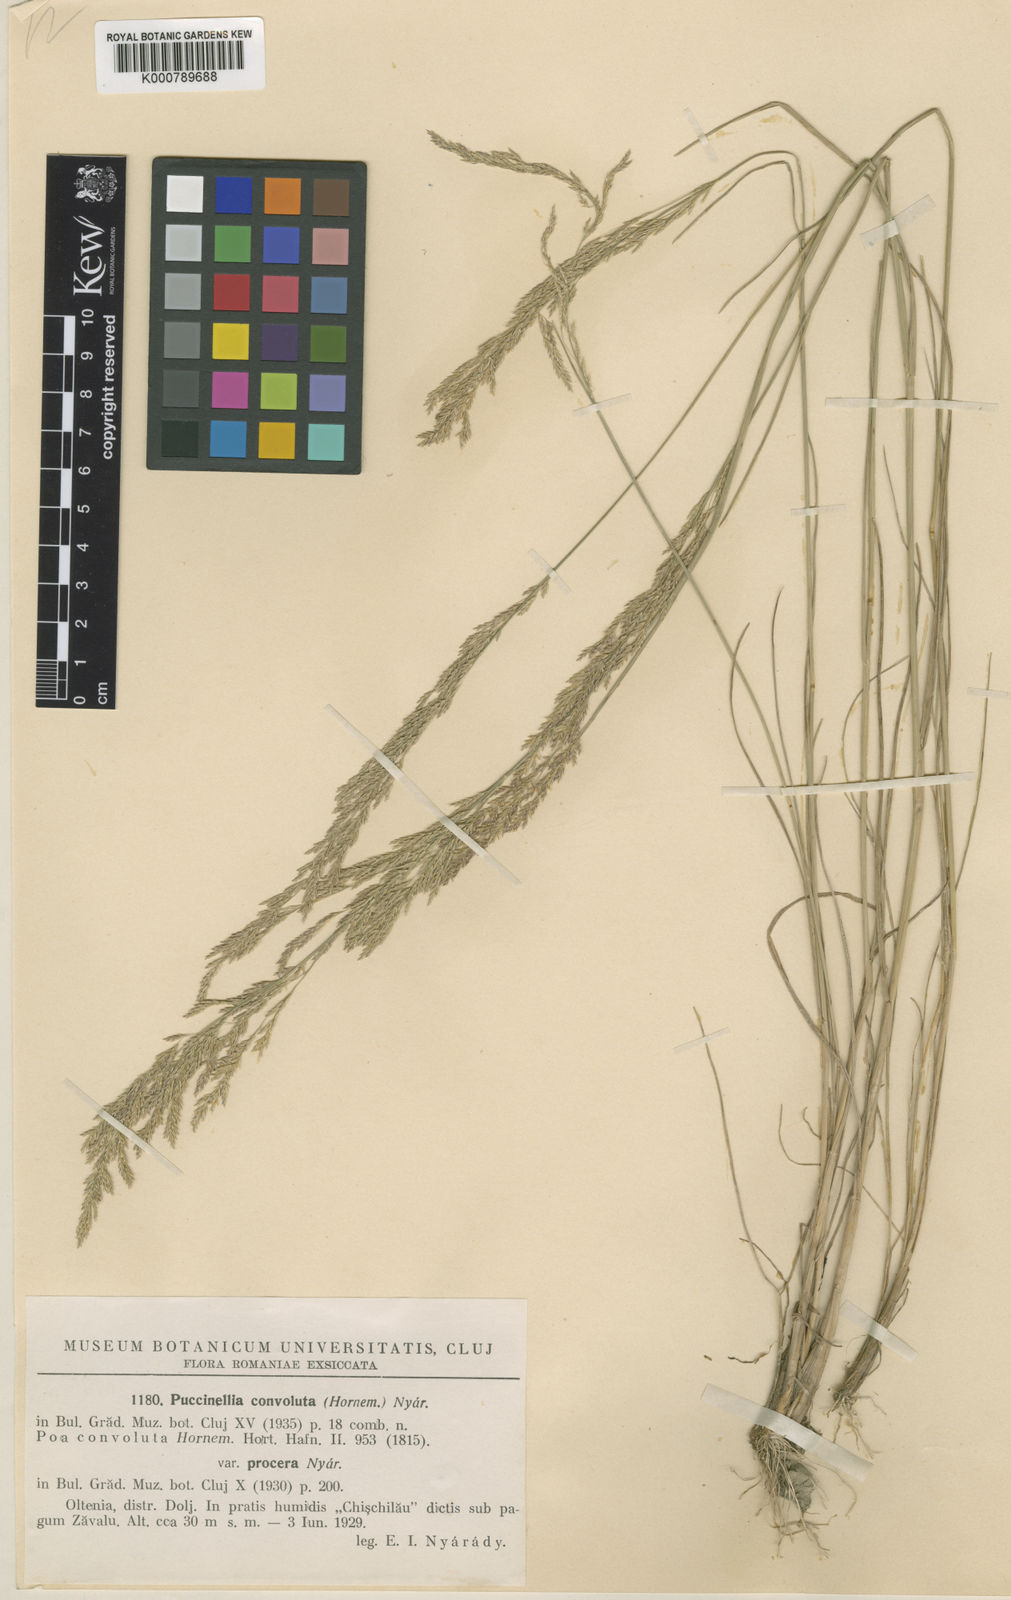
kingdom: Plantae
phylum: Tracheophyta
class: Liliopsida
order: Poales
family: Poaceae
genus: Puccinellia
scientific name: Puccinellia convoluta
